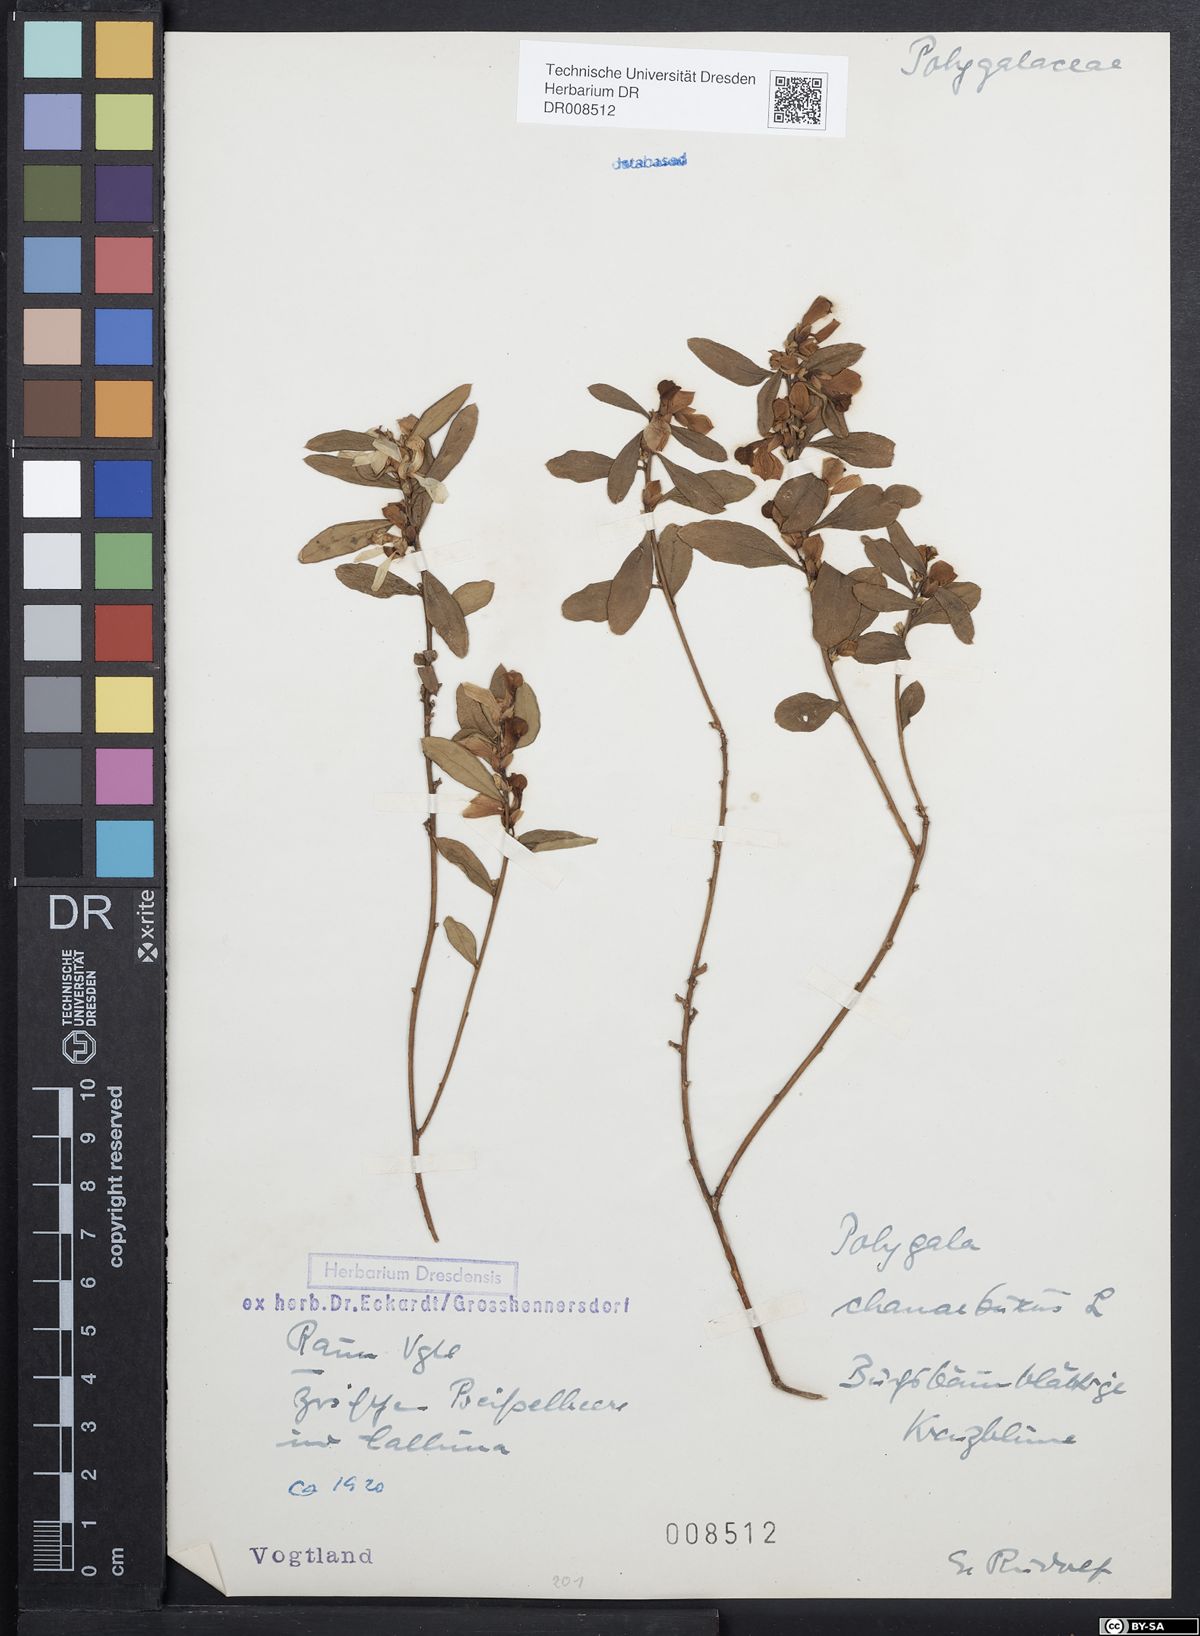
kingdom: Plantae
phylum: Tracheophyta
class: Magnoliopsida
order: Fabales
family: Polygalaceae
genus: Polygaloides
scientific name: Polygaloides chamaebuxus
